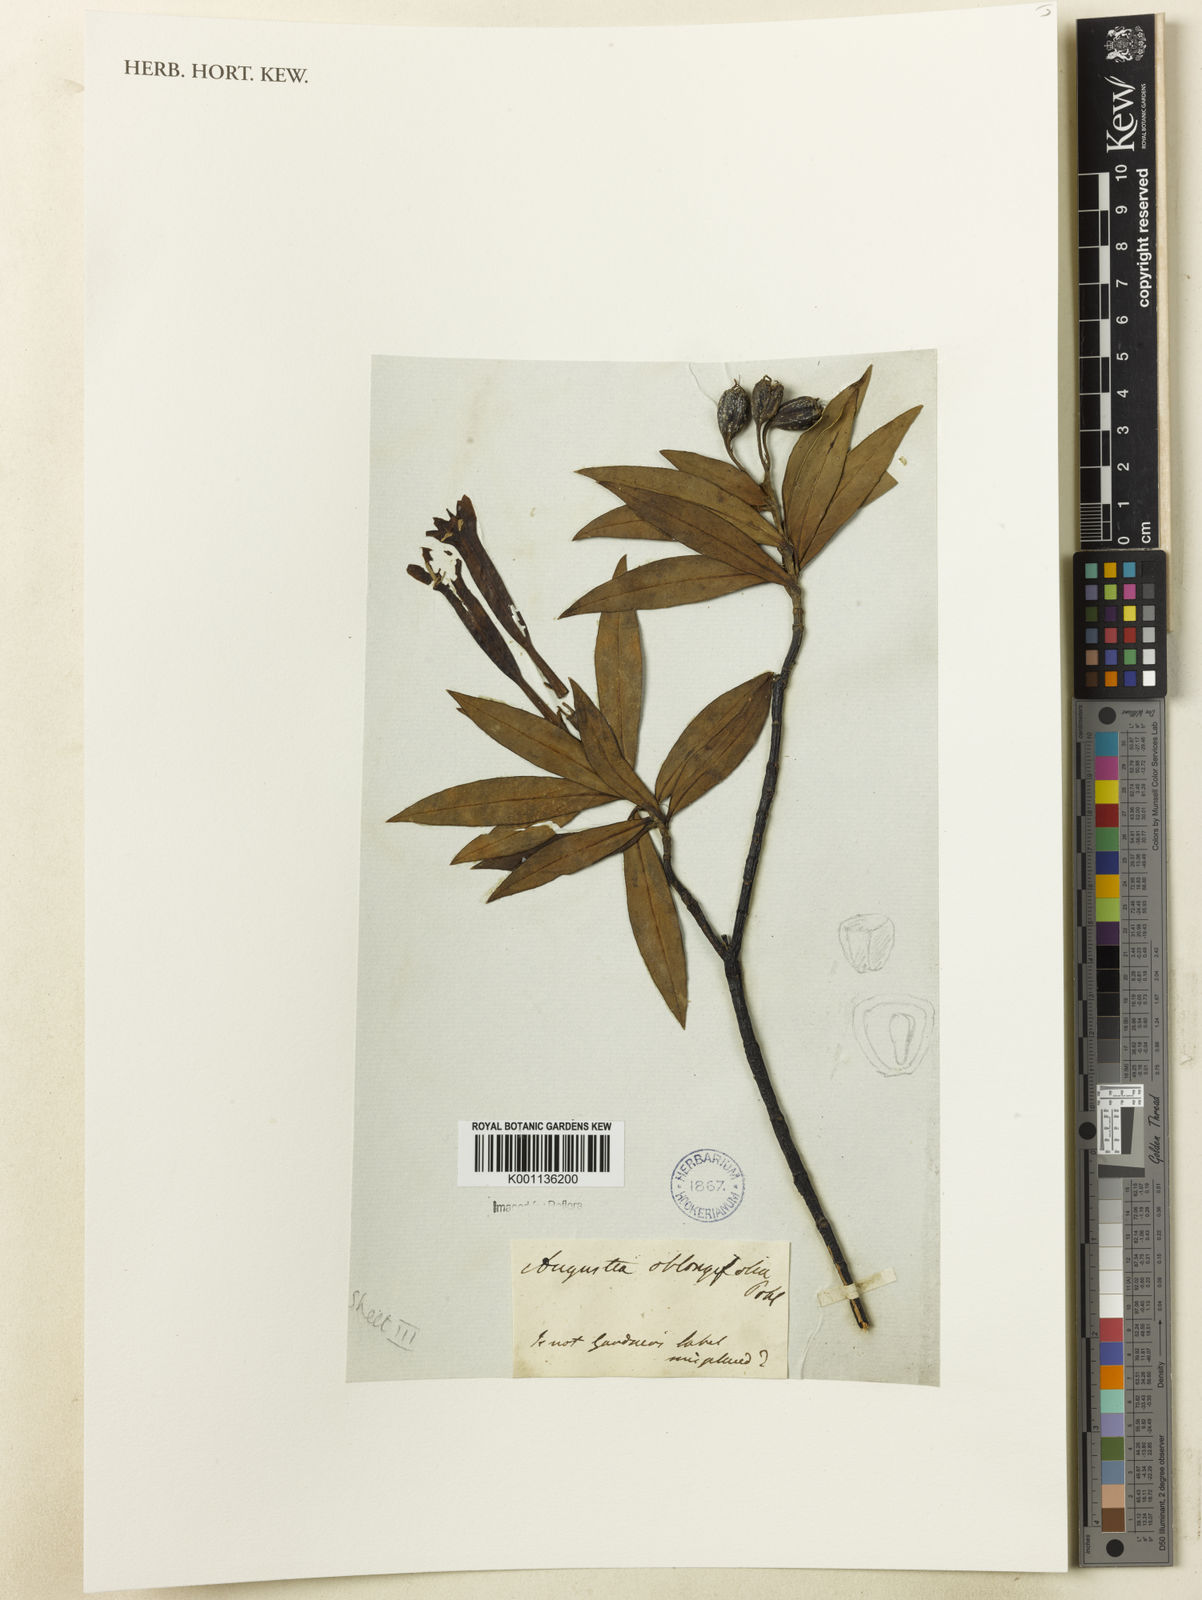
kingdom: Plantae
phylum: Tracheophyta
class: Magnoliopsida
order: Gentianales
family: Rubiaceae
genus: Augusta
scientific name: Augusta longifolia
